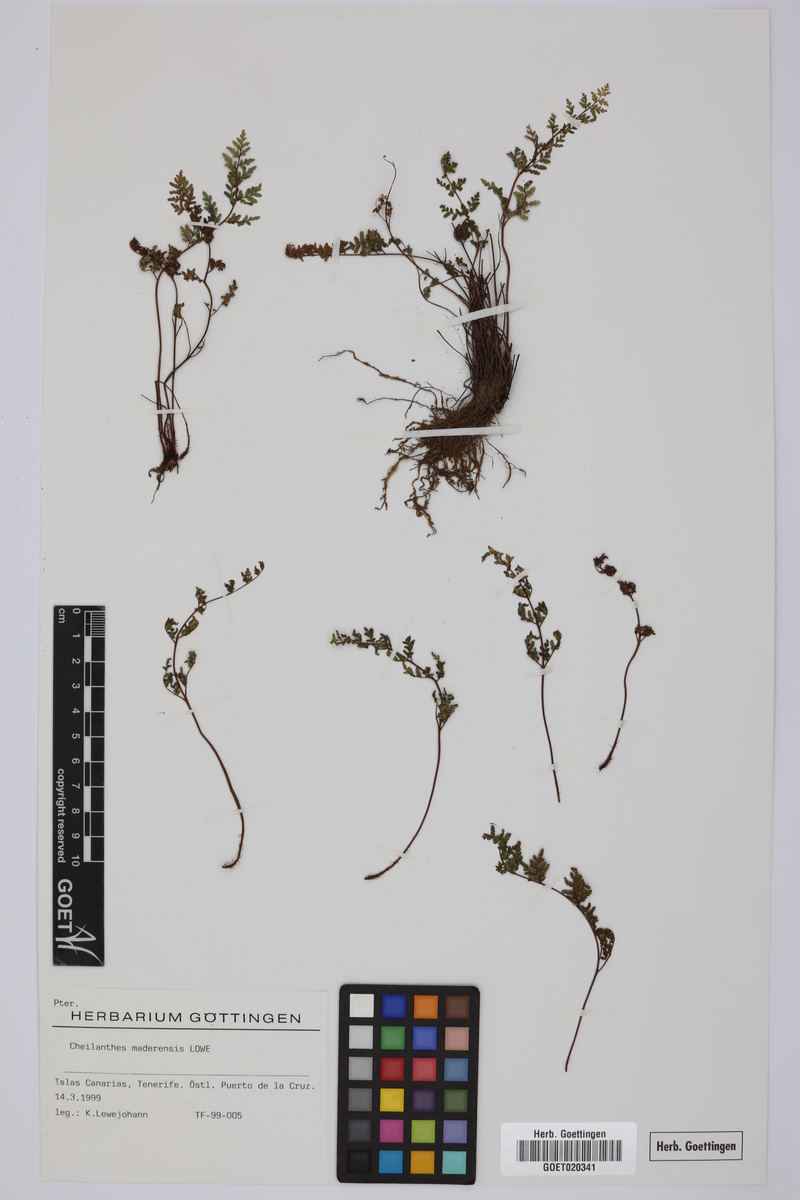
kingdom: Plantae
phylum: Tracheophyta
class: Polypodiopsida
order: Polypodiales
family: Pteridaceae
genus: Oeosporangium
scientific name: Oeosporangium pteridioides
